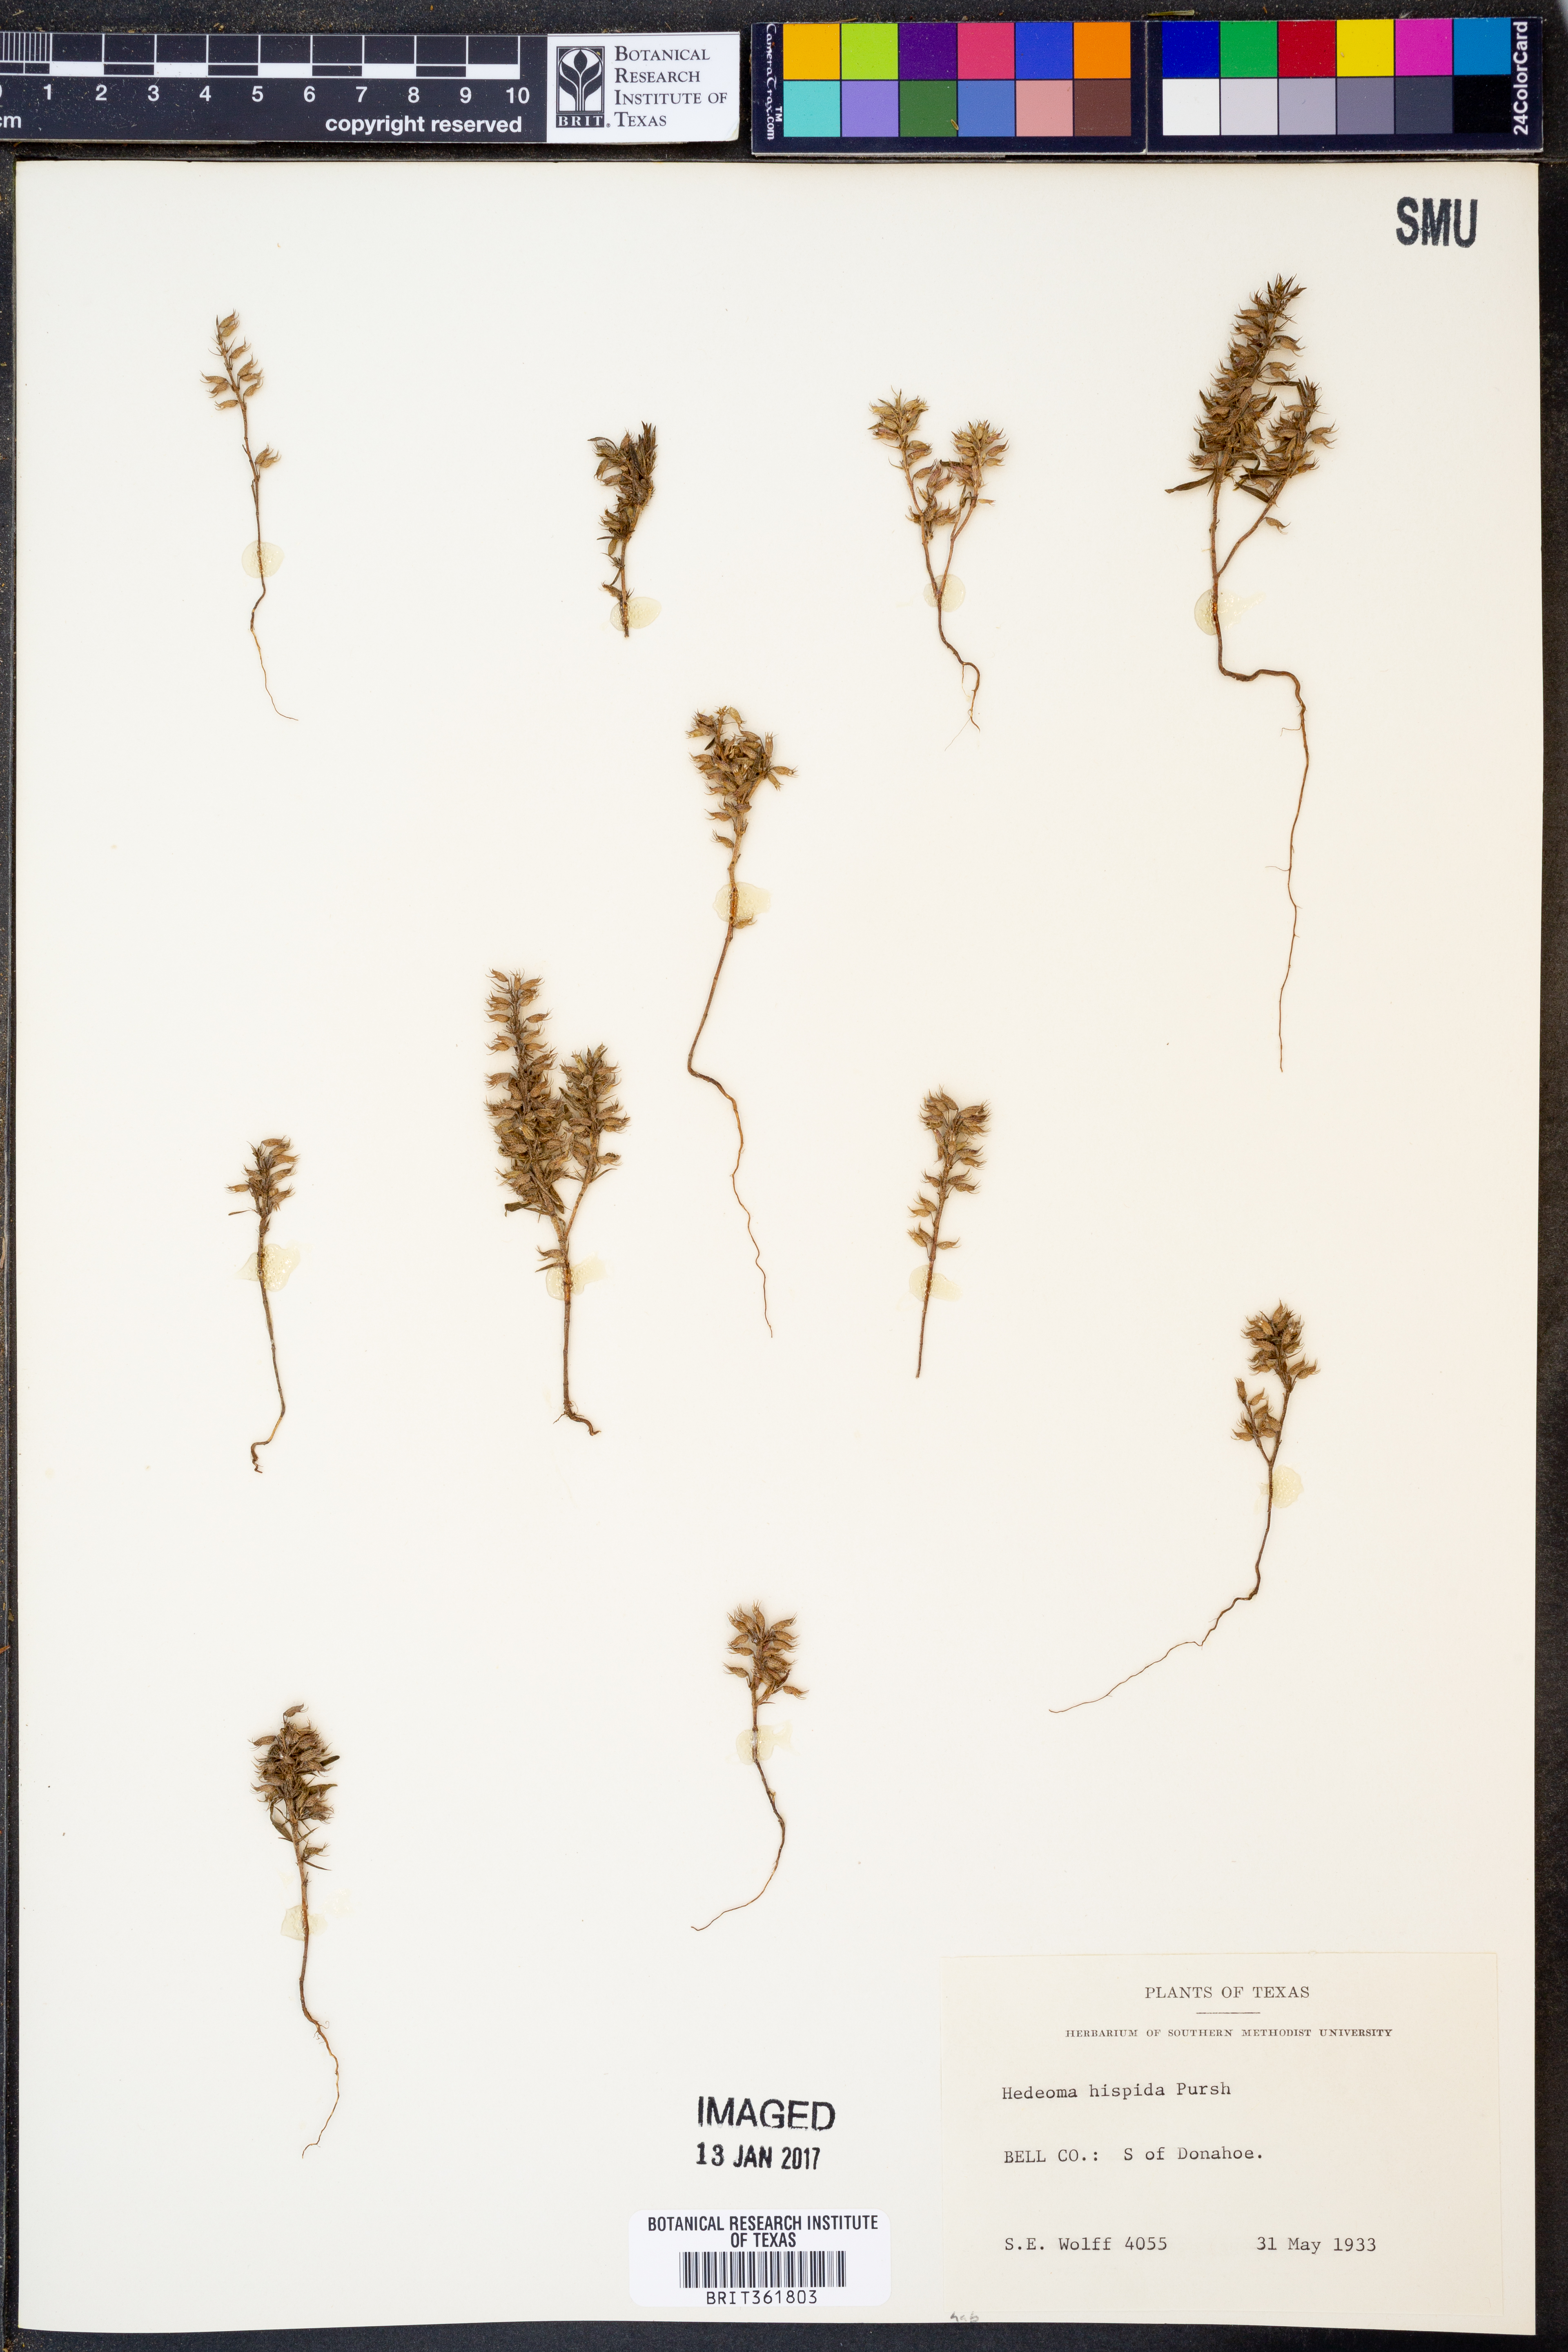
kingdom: Plantae
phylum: Tracheophyta
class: Magnoliopsida
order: Lamiales
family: Lamiaceae
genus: Hedeoma
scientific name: Hedeoma hispida
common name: Mock pennyroyal
